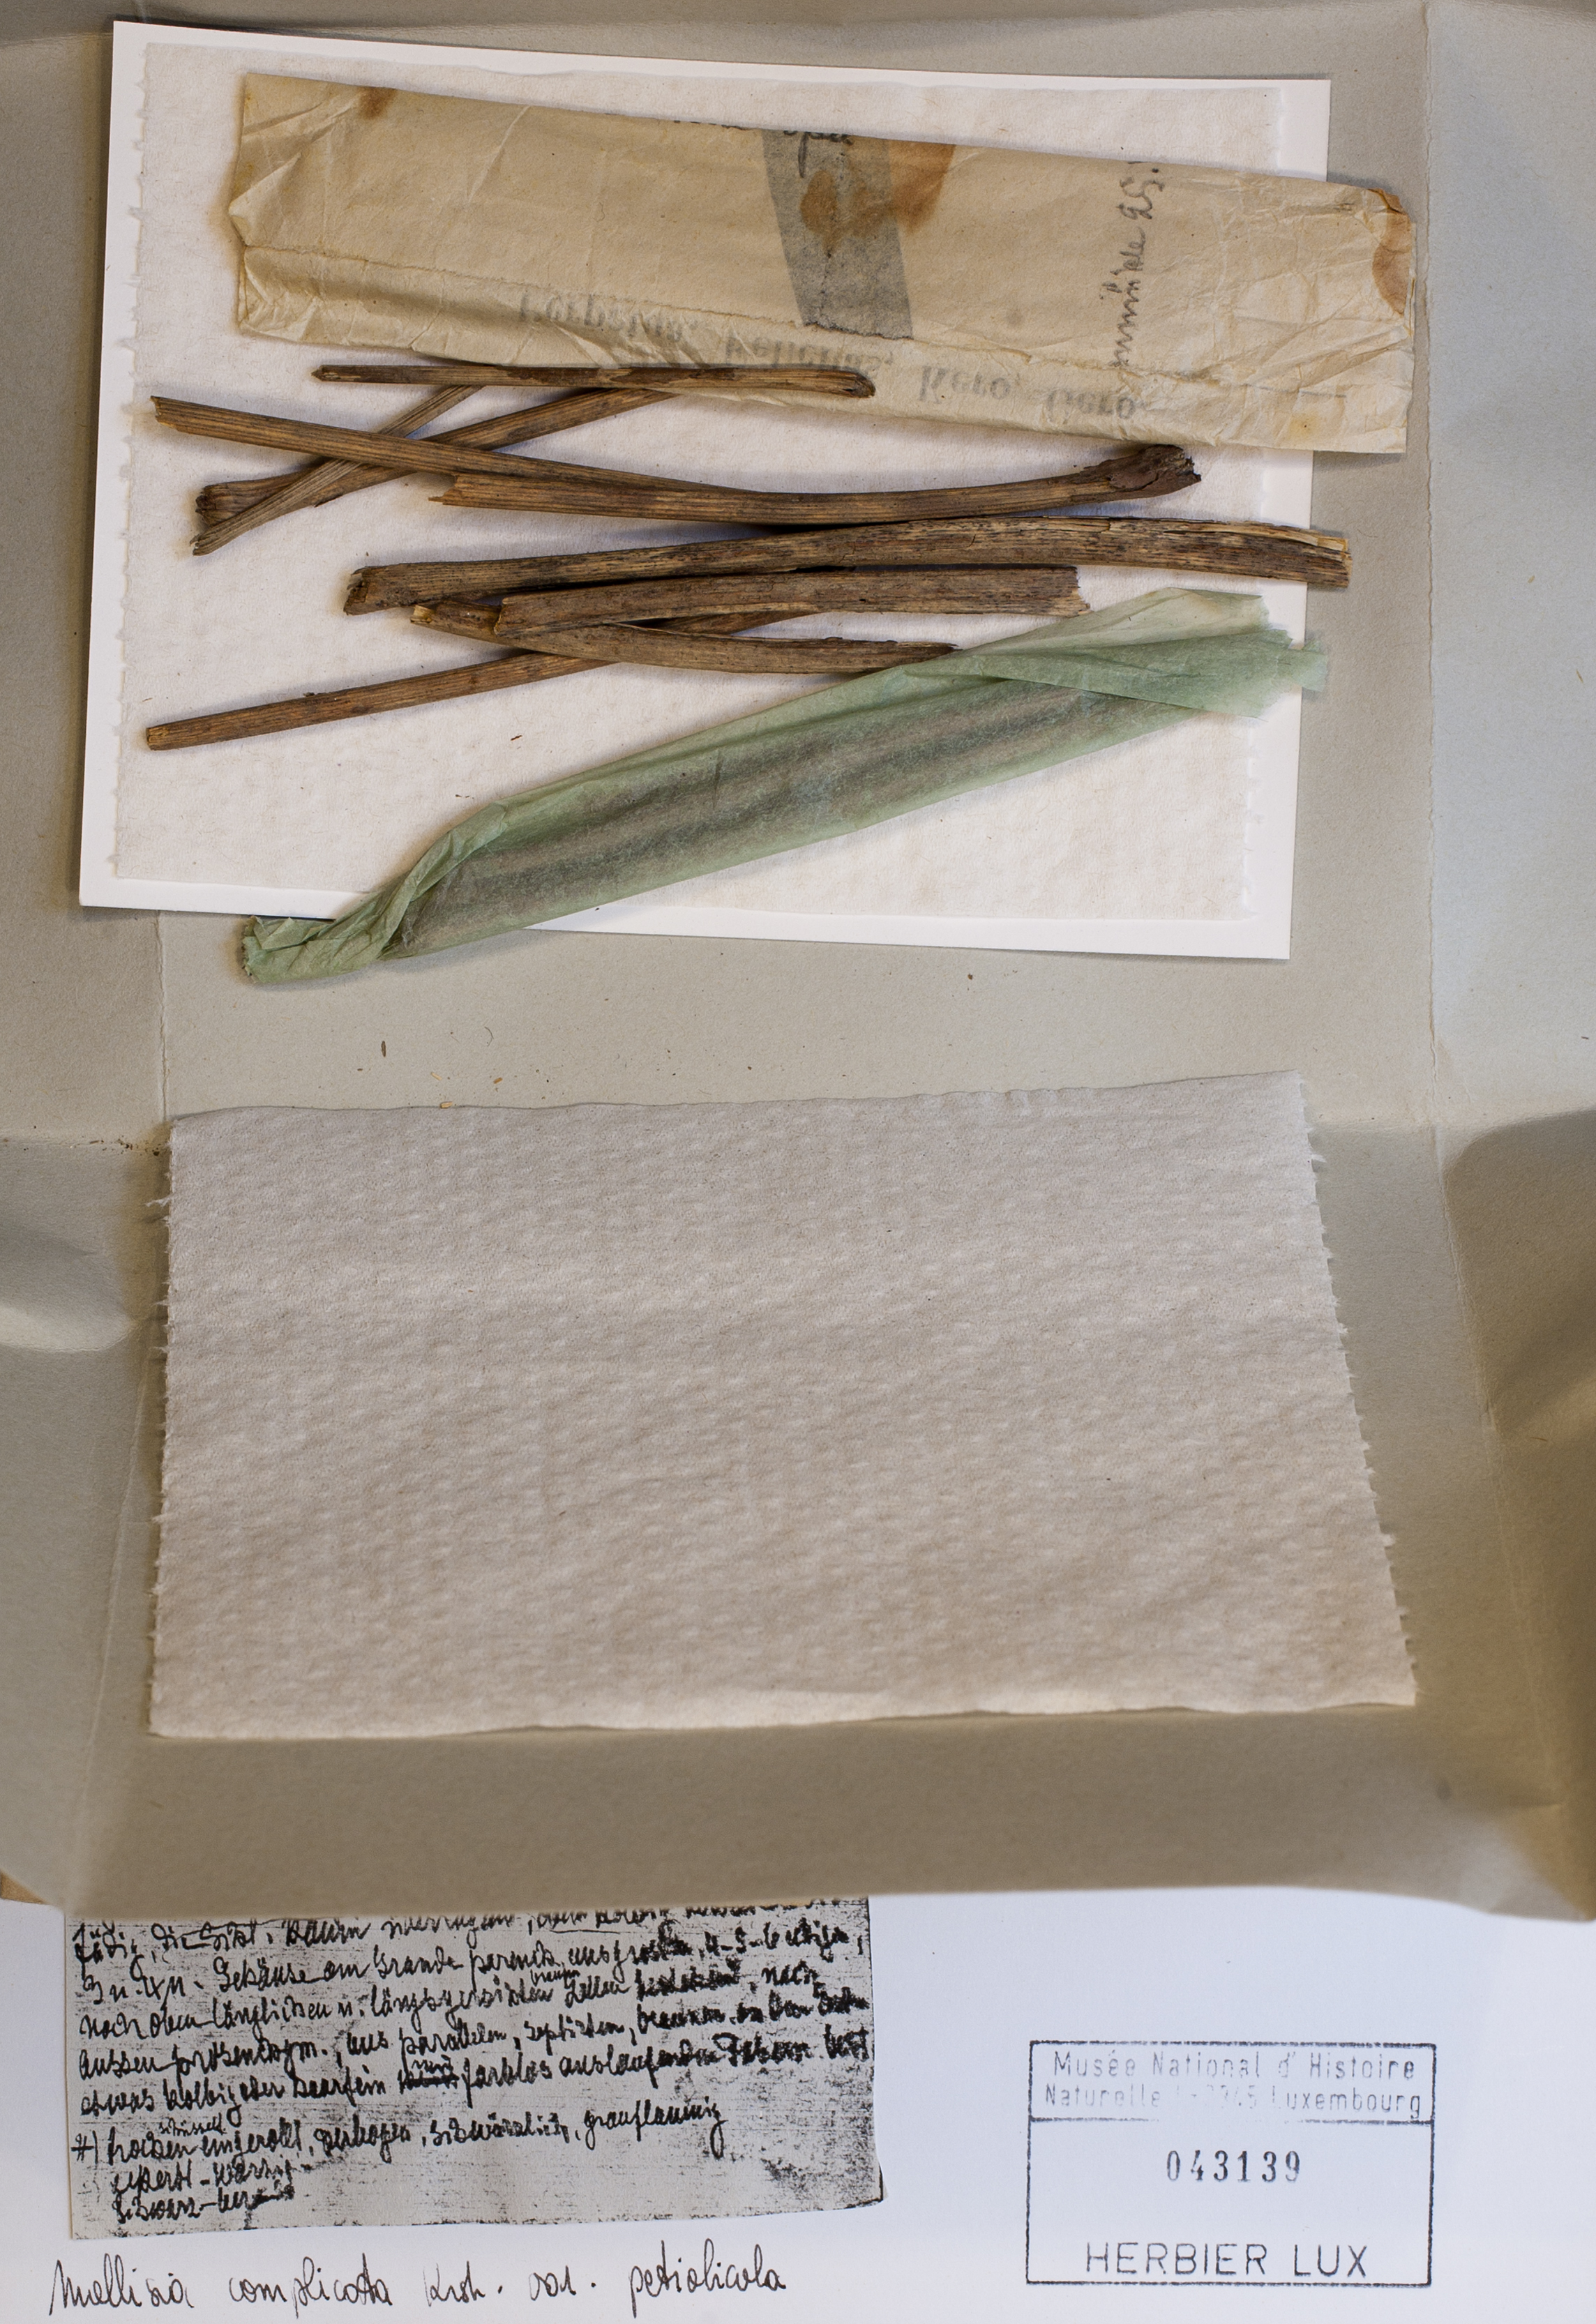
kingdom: Fungi
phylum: Ascomycota
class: Leotiomycetes
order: Helotiales
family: Helotiaceae
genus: Crocicreas
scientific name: Crocicreas complicatum
